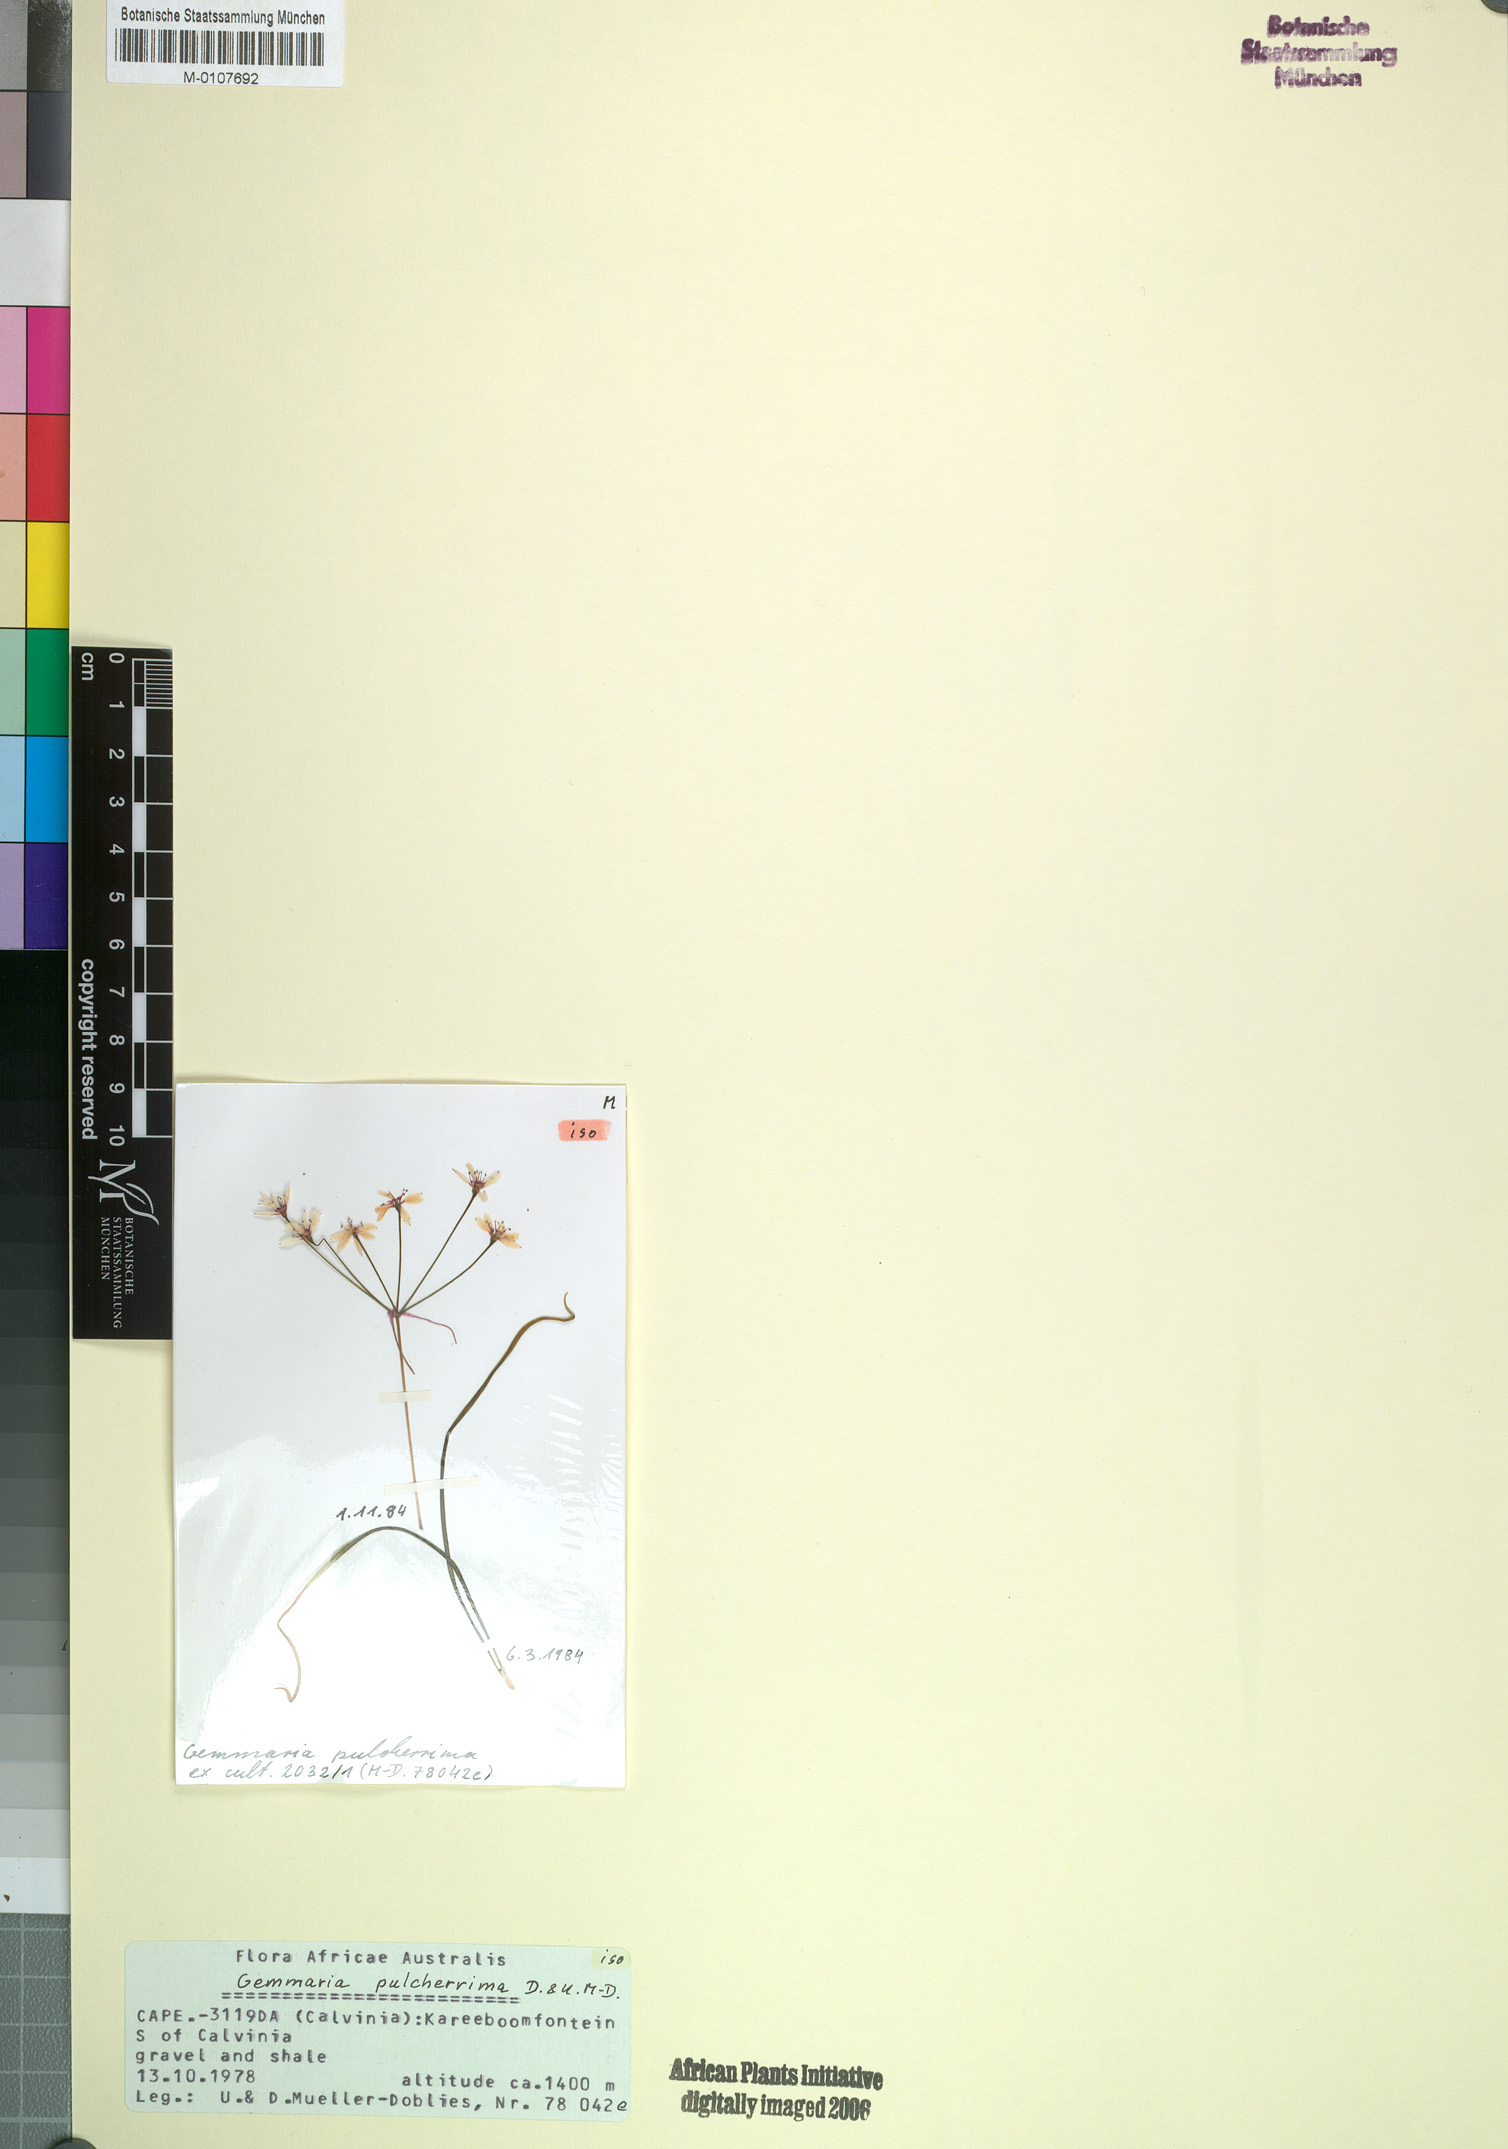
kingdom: Plantae
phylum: Tracheophyta
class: Liliopsida
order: Asparagales
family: Amaryllidaceae
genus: Hessea
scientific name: Hessea pulcherrima
